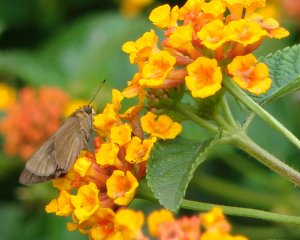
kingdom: Animalia
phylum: Arthropoda
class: Insecta
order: Lepidoptera
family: Hesperiidae
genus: Panoquina
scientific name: Panoquina ocola
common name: Ocola Skipper
